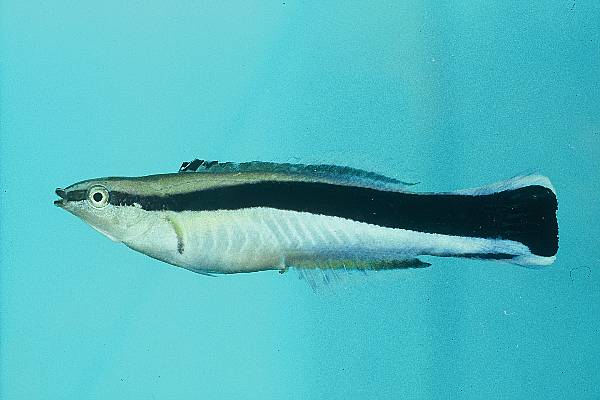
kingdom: Animalia
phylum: Chordata
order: Perciformes
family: Labridae
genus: Labroides
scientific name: Labroides dimidiatus
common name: Blue diesel wrasse
